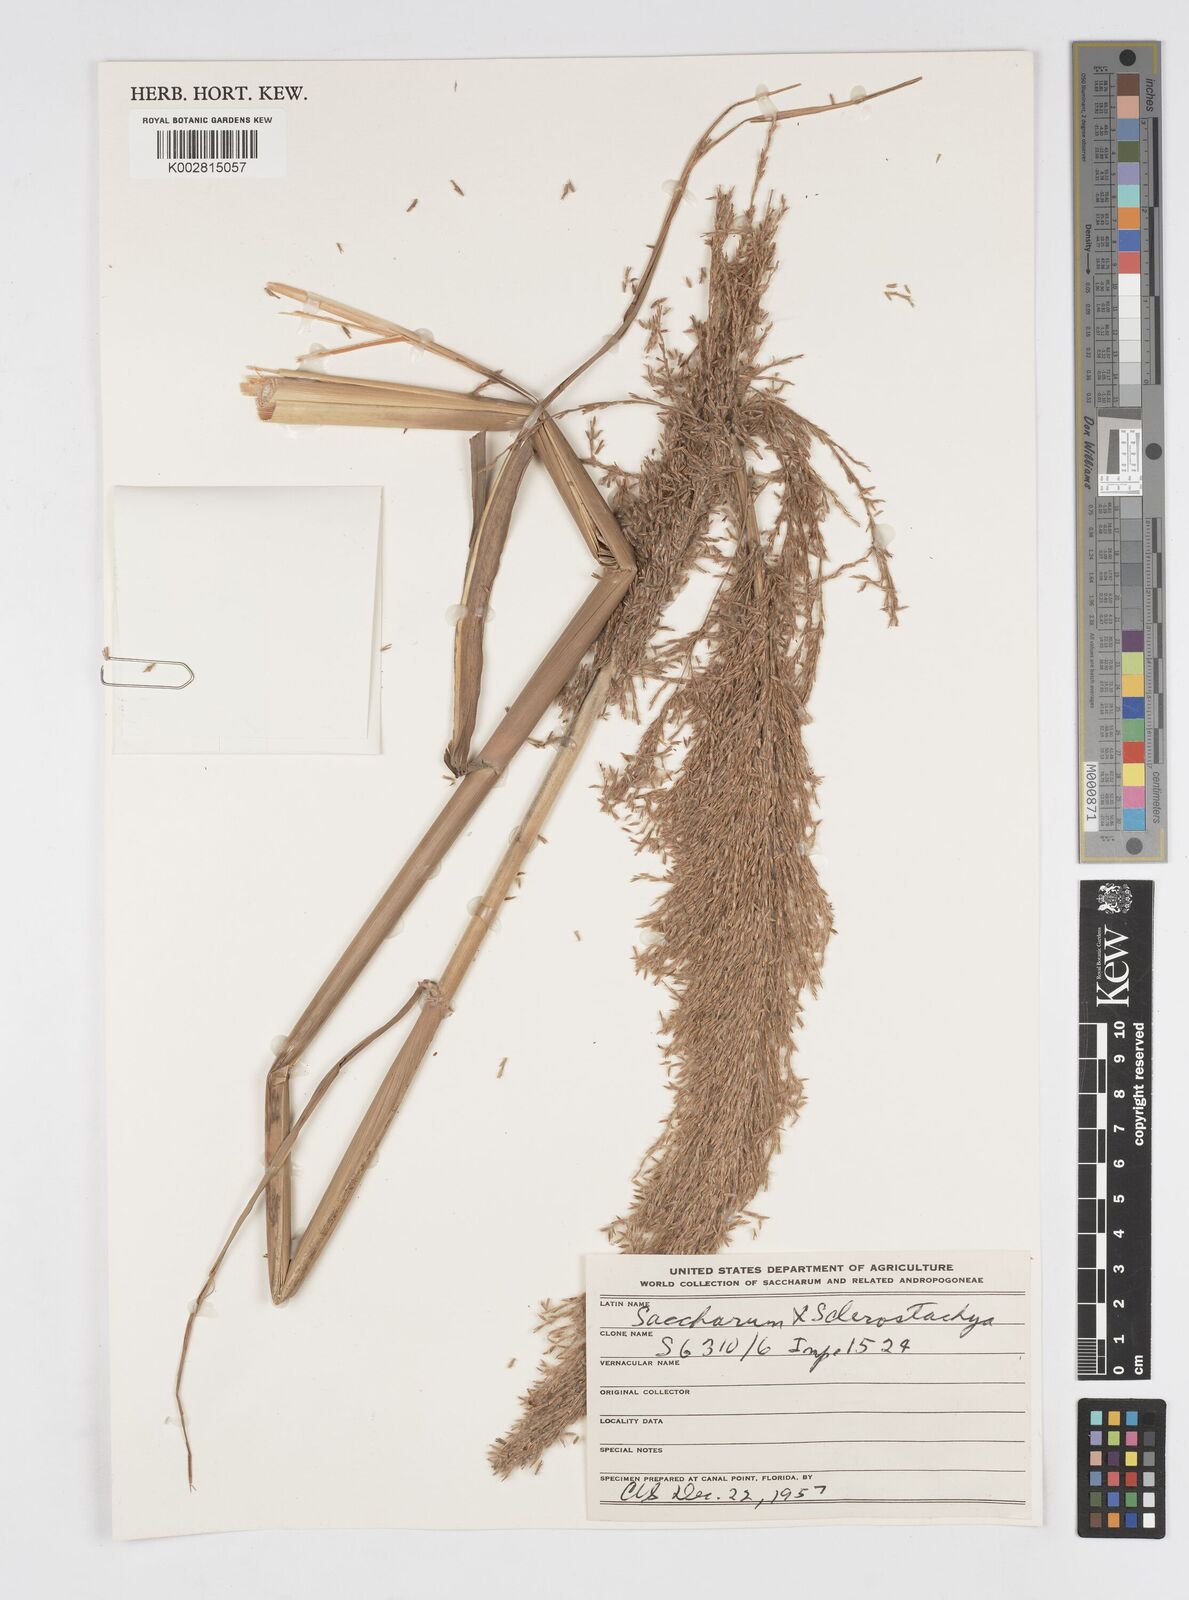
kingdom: Plantae
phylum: Tracheophyta
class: Liliopsida
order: Poales
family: Poaceae
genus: Saccharum
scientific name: Saccharum
